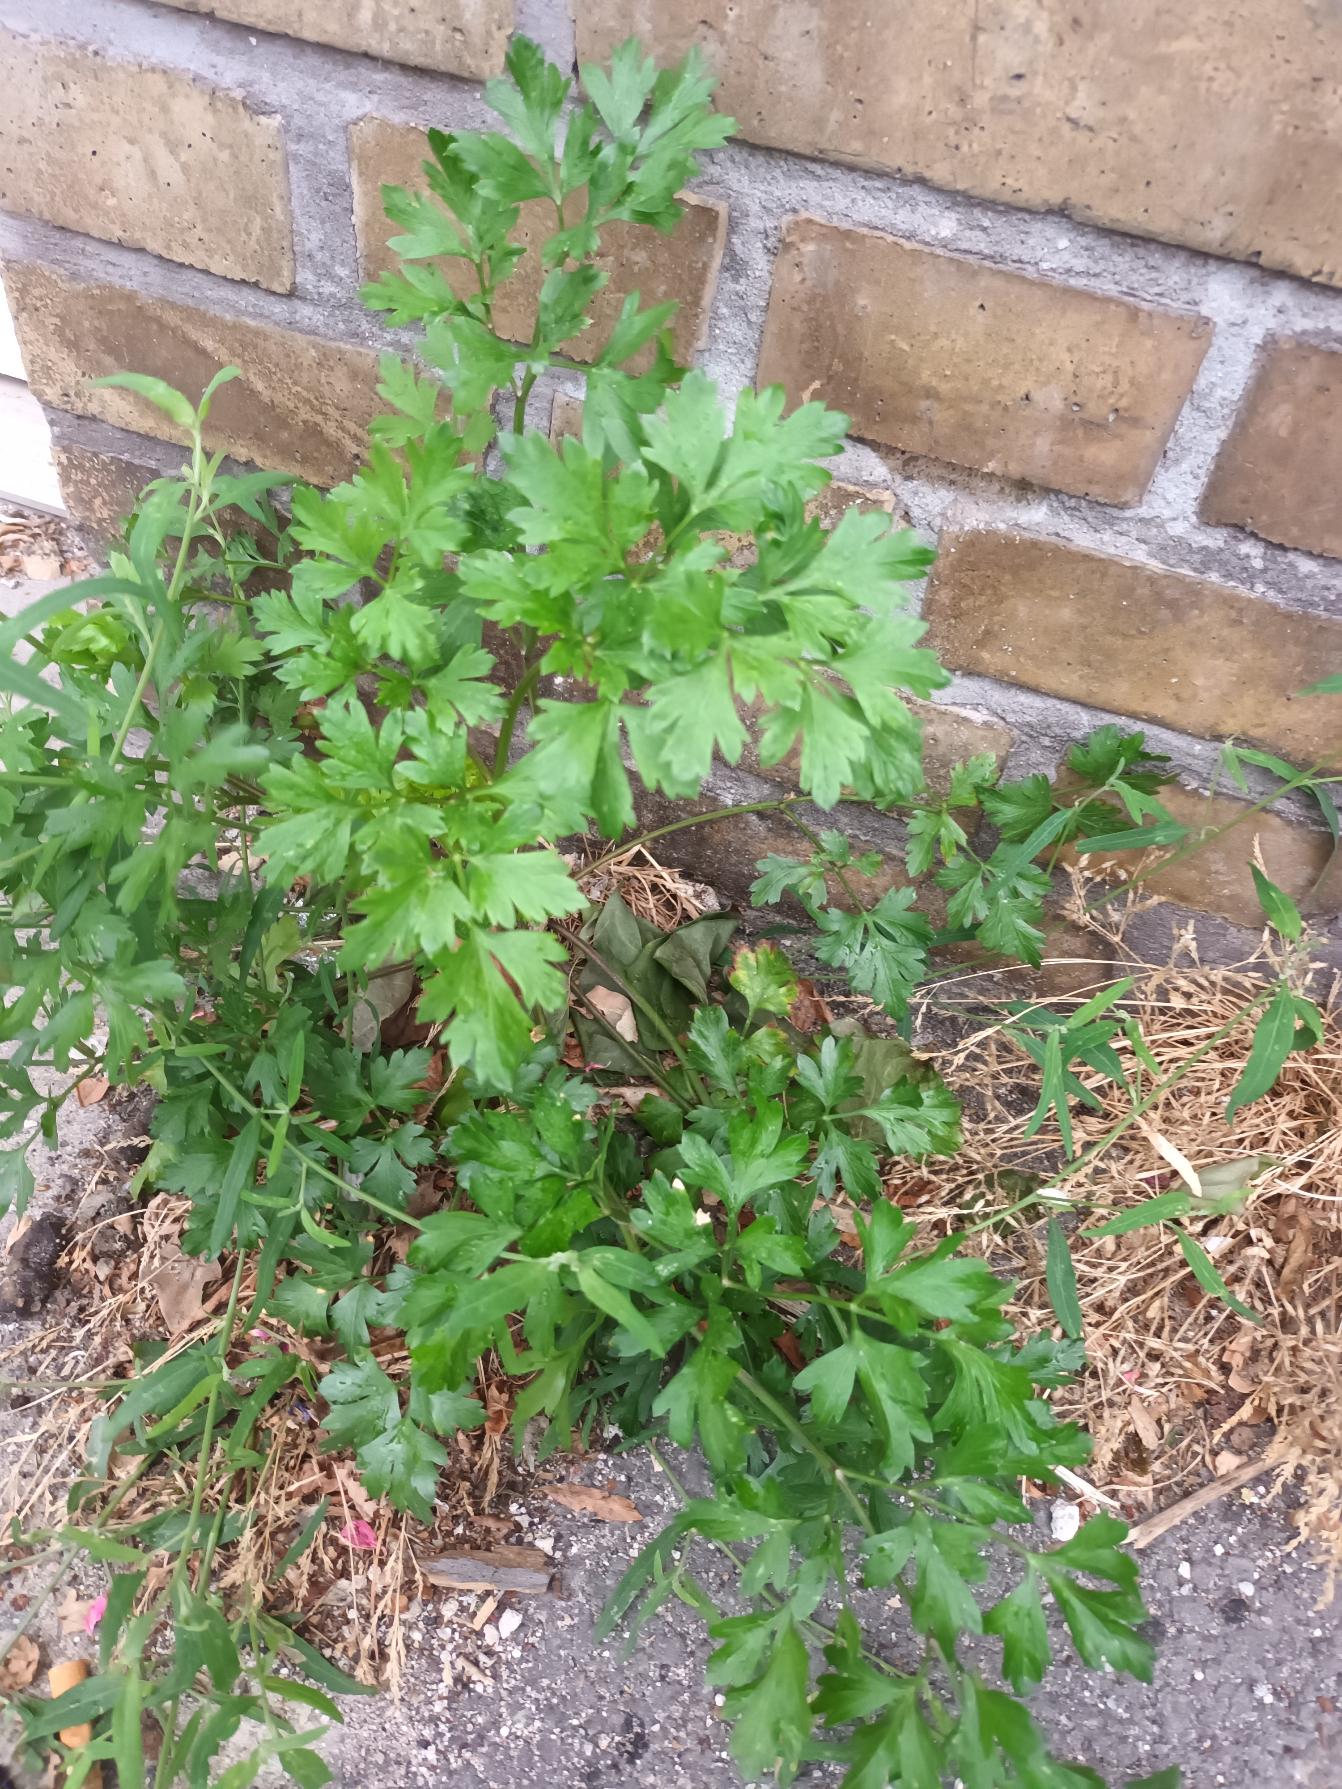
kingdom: Plantae
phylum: Tracheophyta
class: Magnoliopsida
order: Apiales
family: Apiaceae
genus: Petroselinum
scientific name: Petroselinum crispum
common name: Persille
